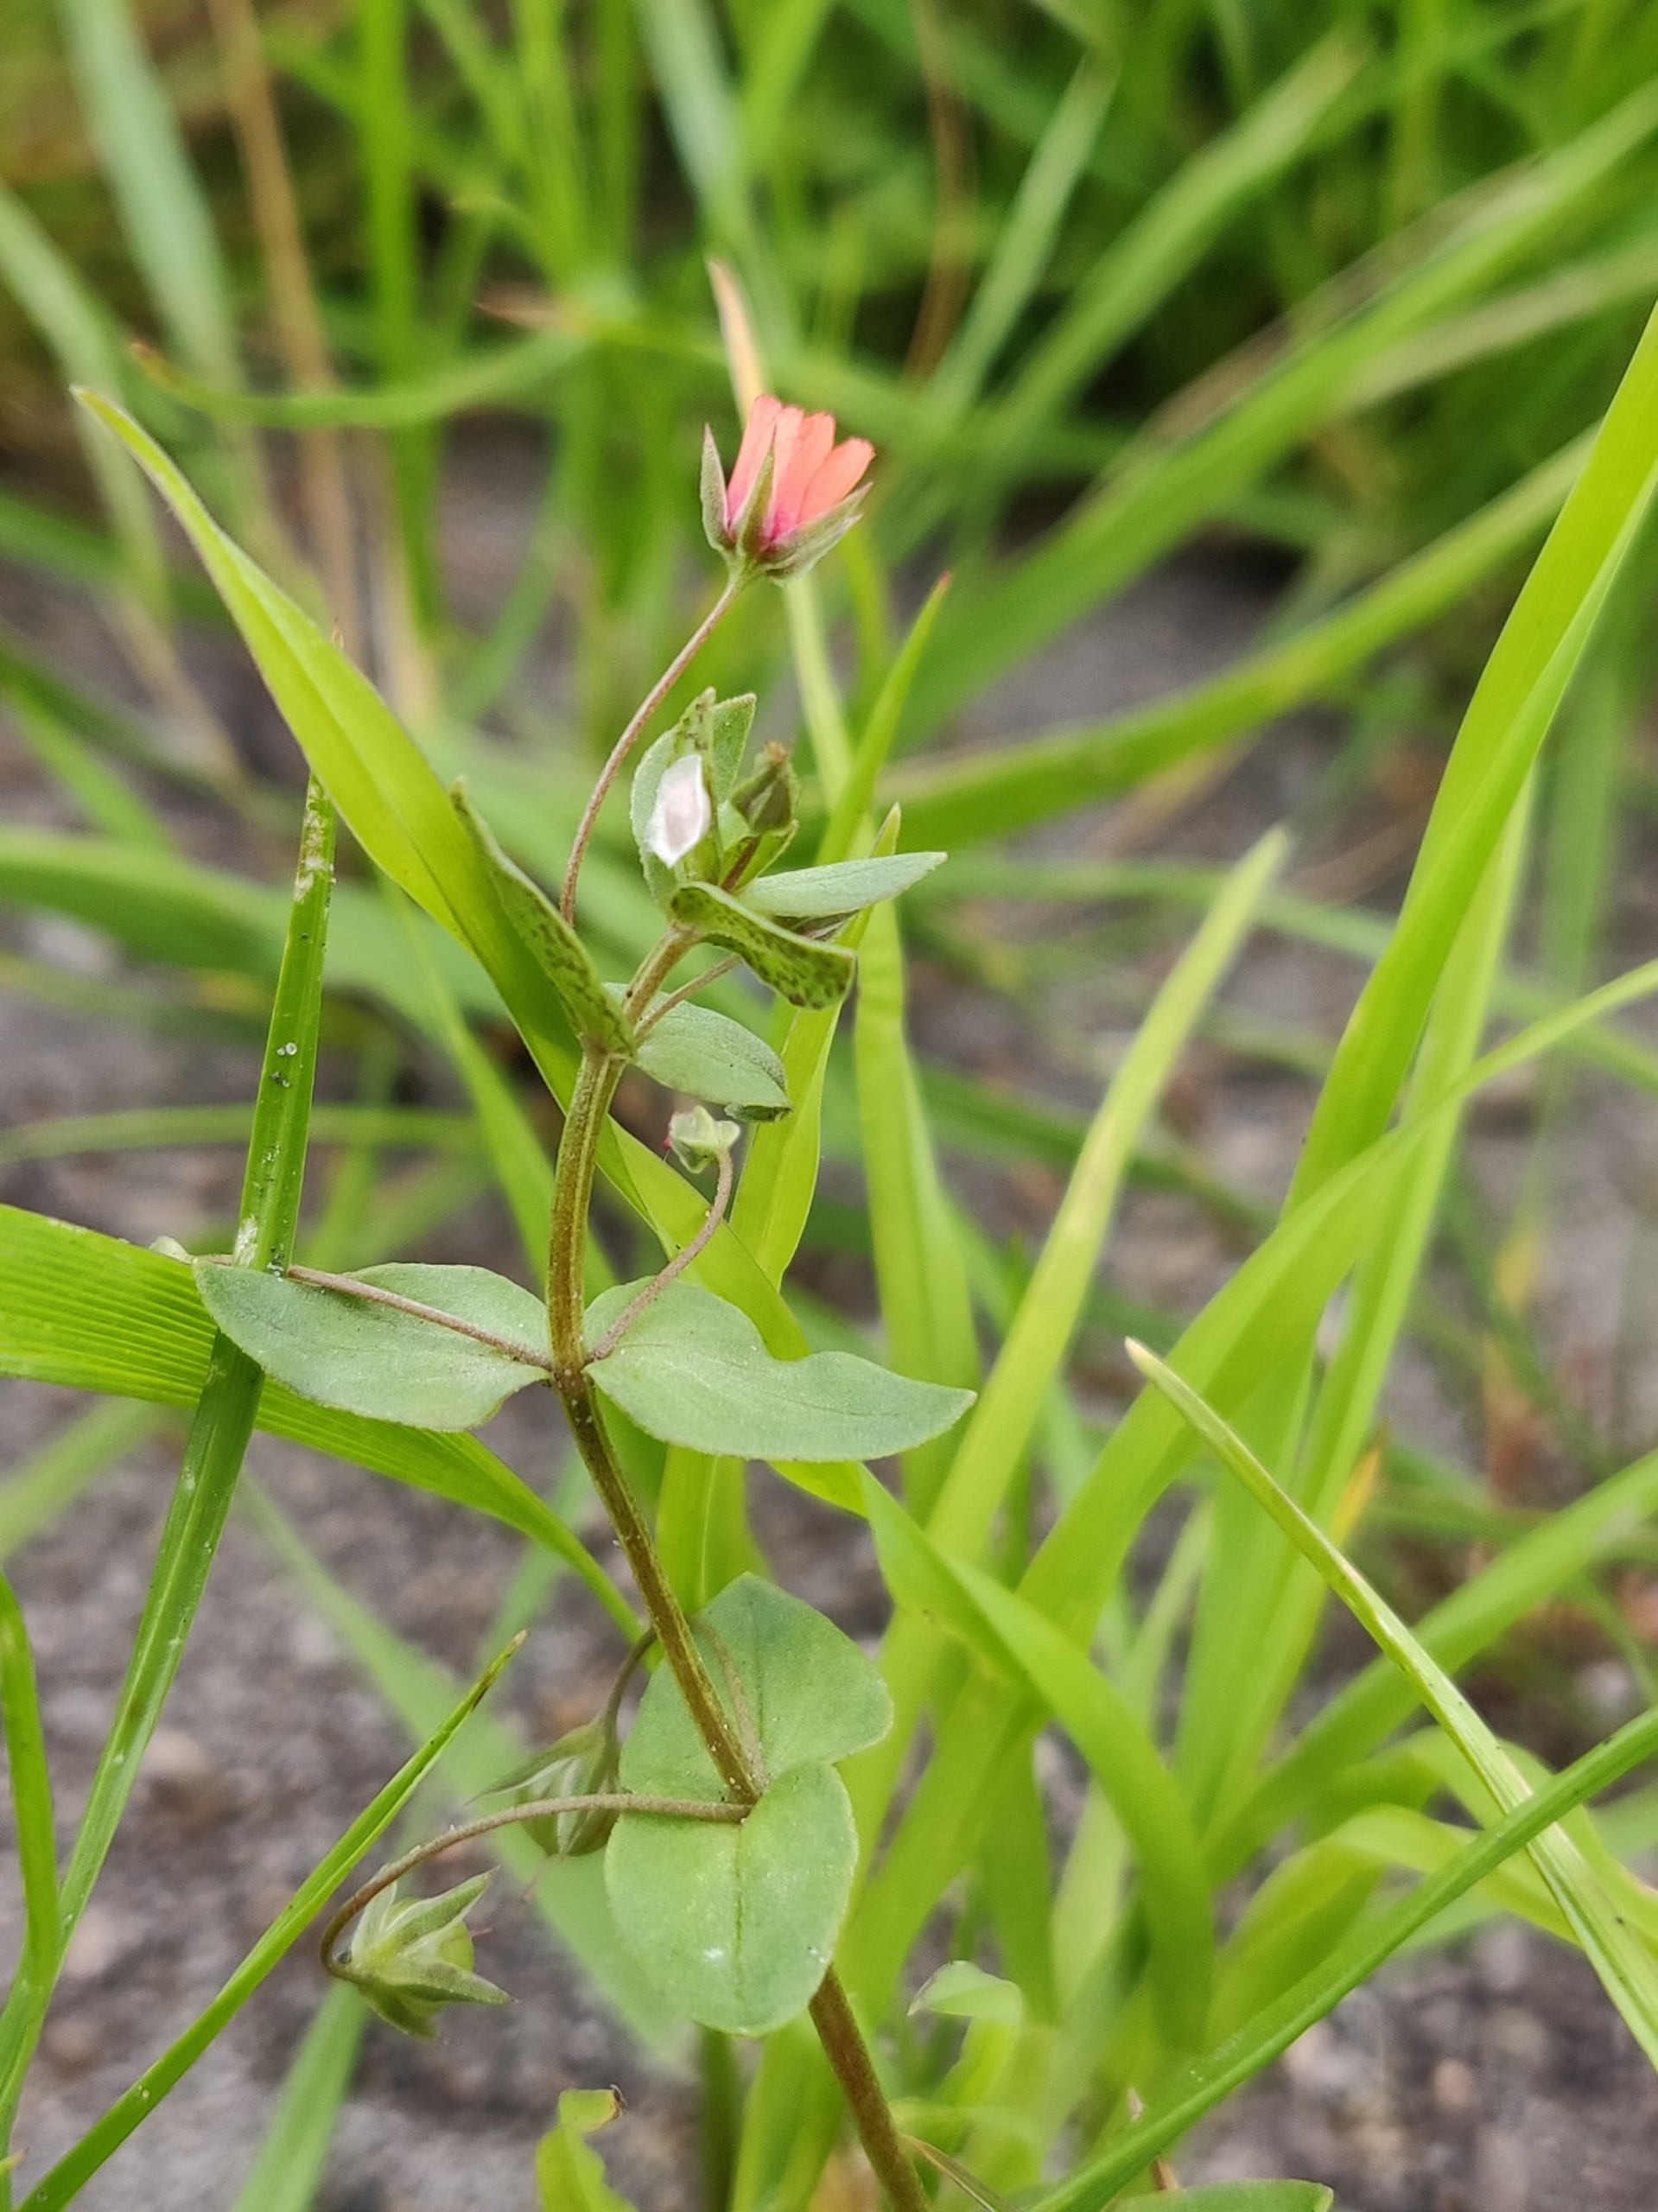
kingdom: Plantae
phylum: Tracheophyta
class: Magnoliopsida
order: Ericales
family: Primulaceae
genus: Lysimachia
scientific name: Lysimachia arvensis
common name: Rød arve
